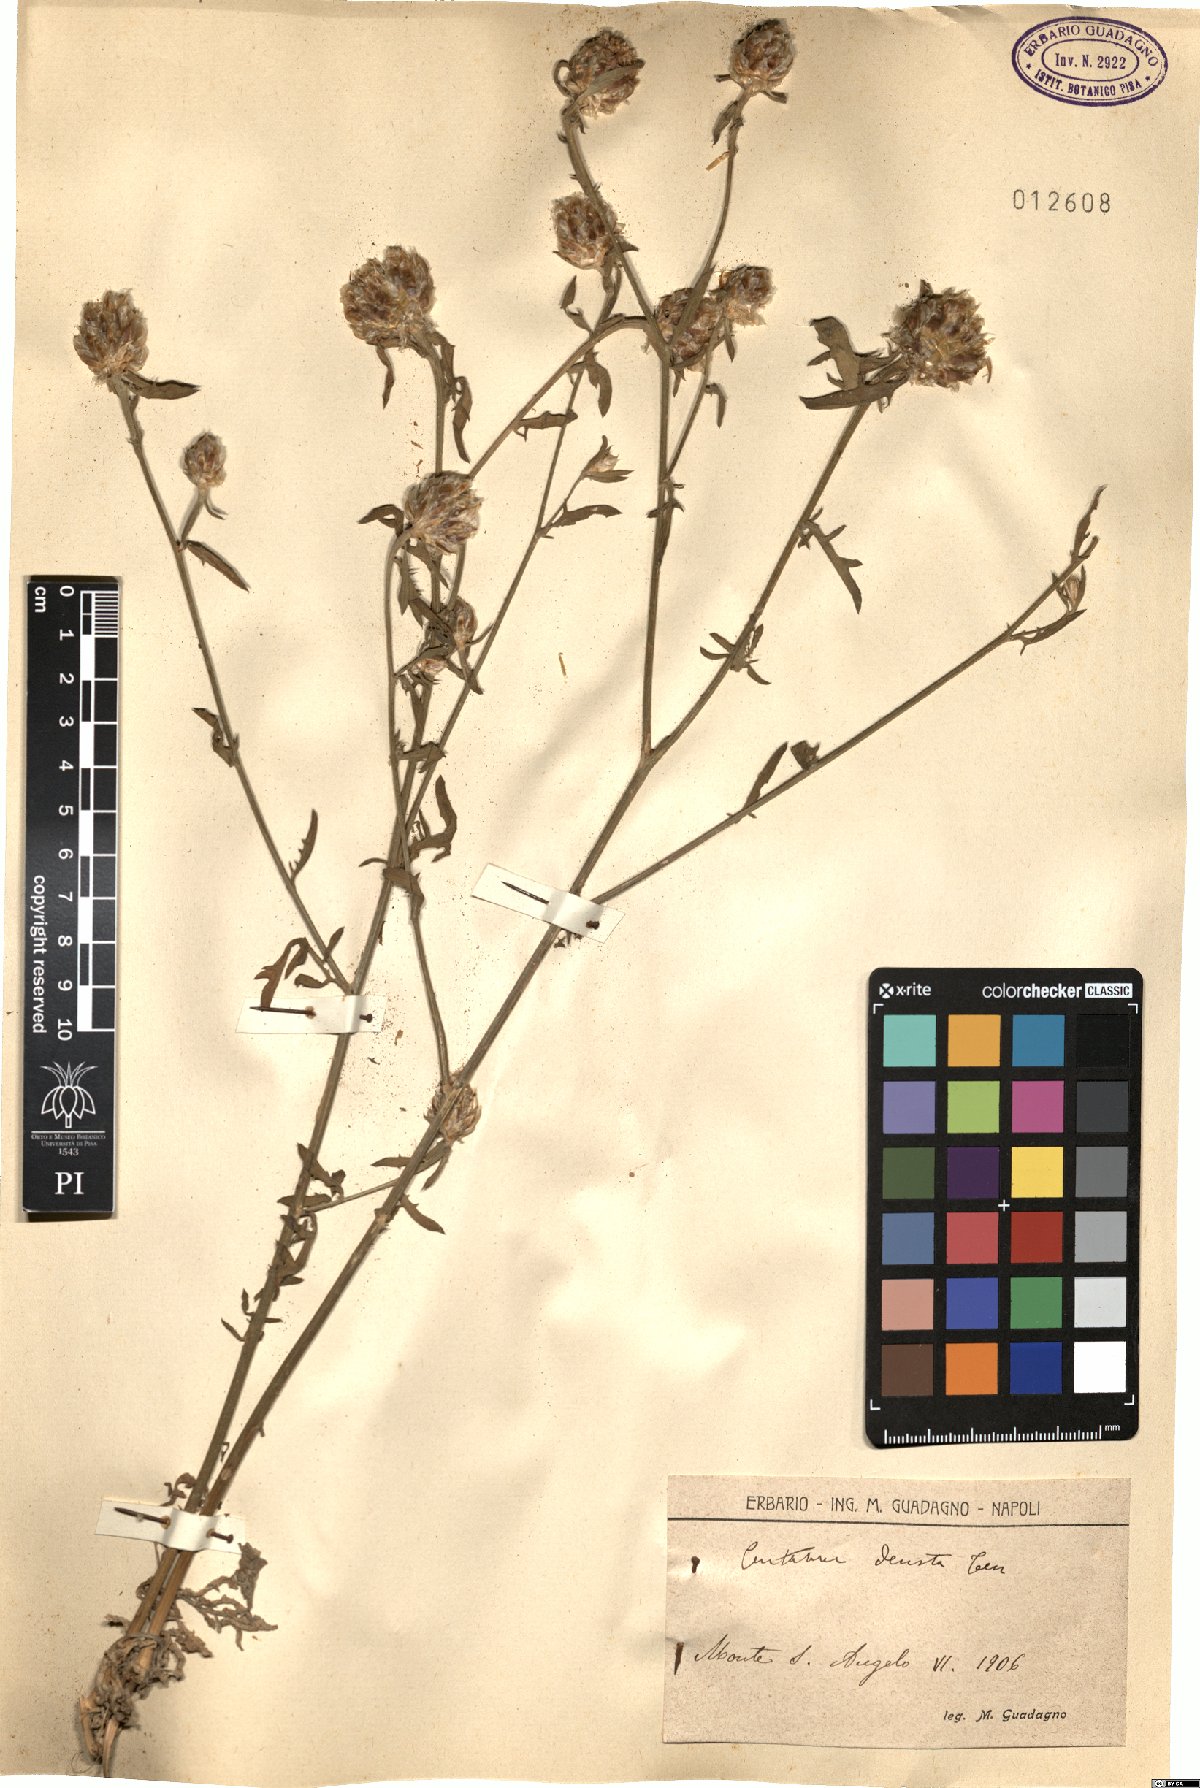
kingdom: Plantae
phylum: Tracheophyta
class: Magnoliopsida
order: Asterales
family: Asteraceae
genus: Centaurea
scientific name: Centaurea deusta
